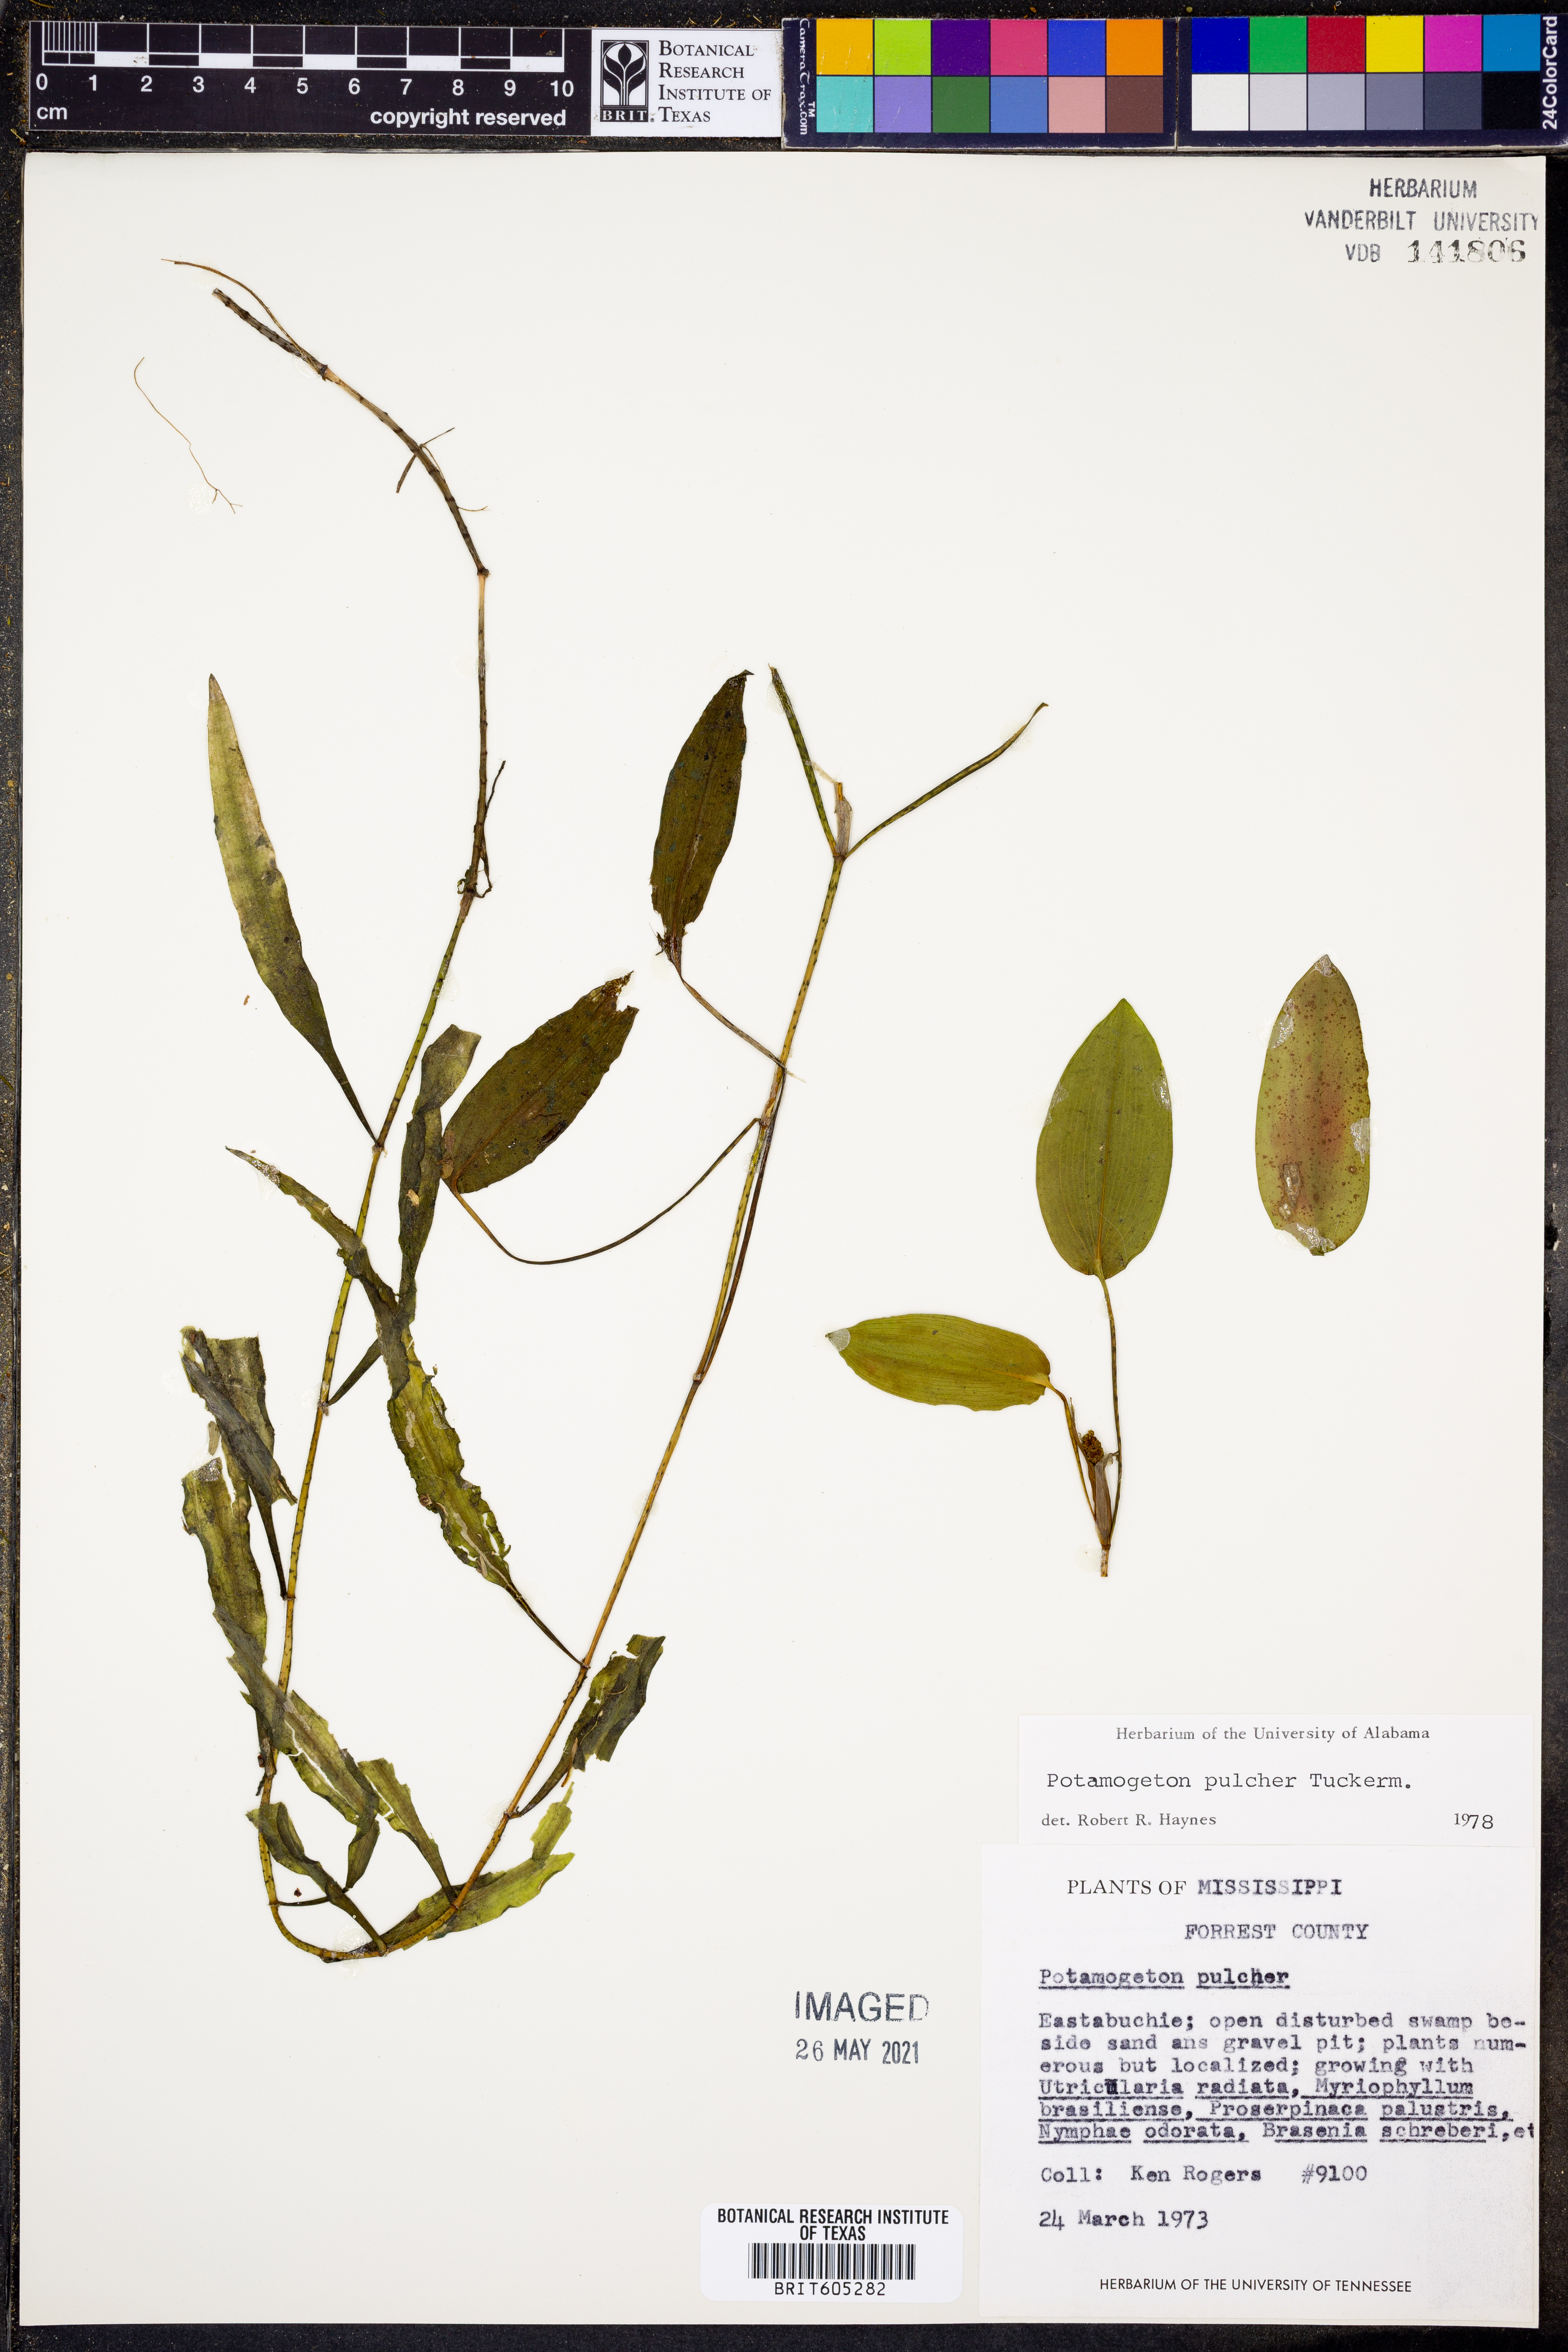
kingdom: Plantae
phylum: Tracheophyta
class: Liliopsida
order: Alismatales
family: Potamogetonaceae
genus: Potamogeton
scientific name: Potamogeton pulcher
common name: Heart-leaved pondweed
